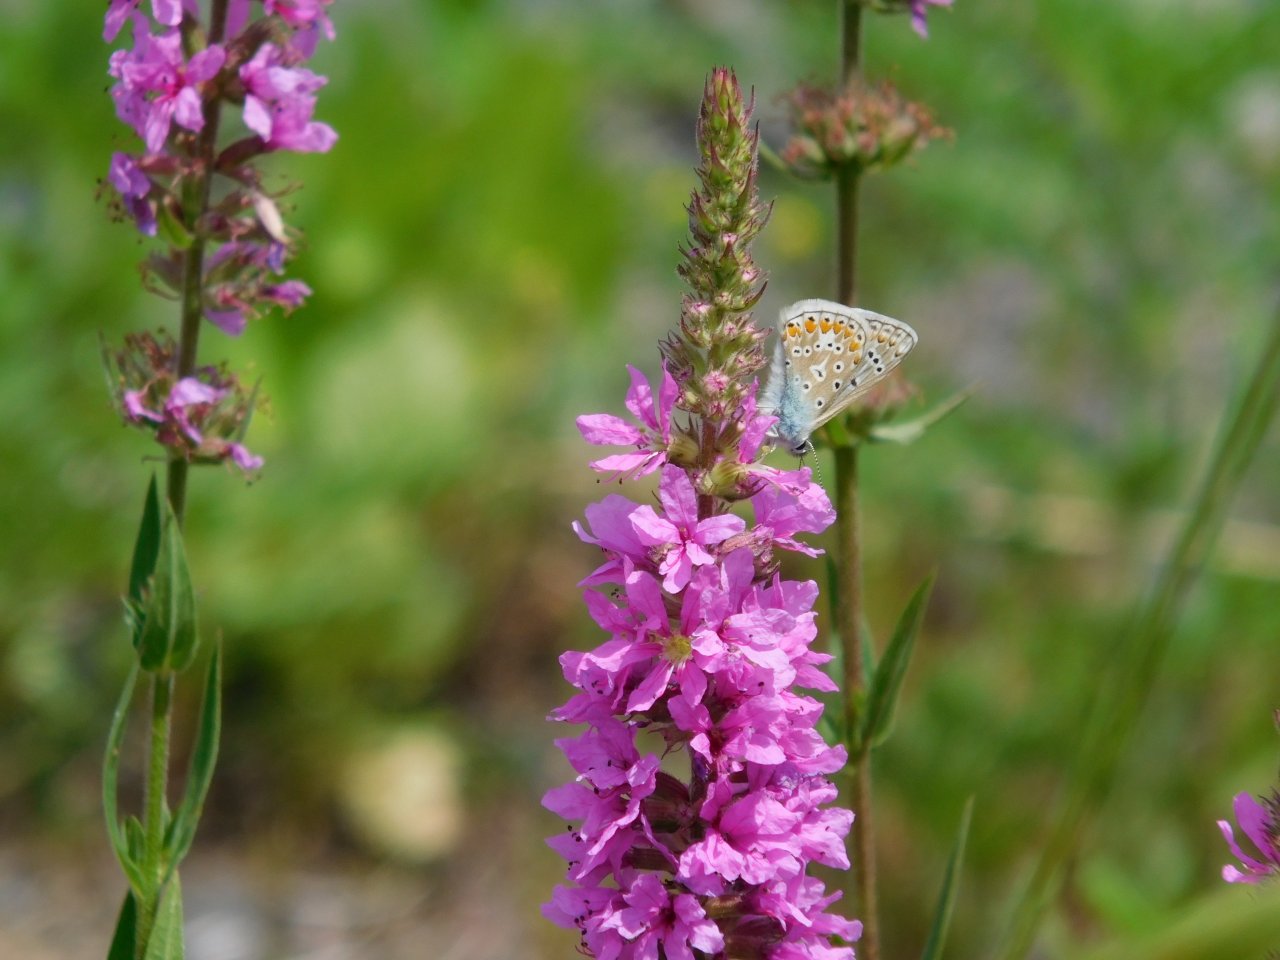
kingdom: Animalia
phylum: Arthropoda
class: Insecta
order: Lepidoptera
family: Lycaenidae
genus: Polyommatus
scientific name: Polyommatus icarus
